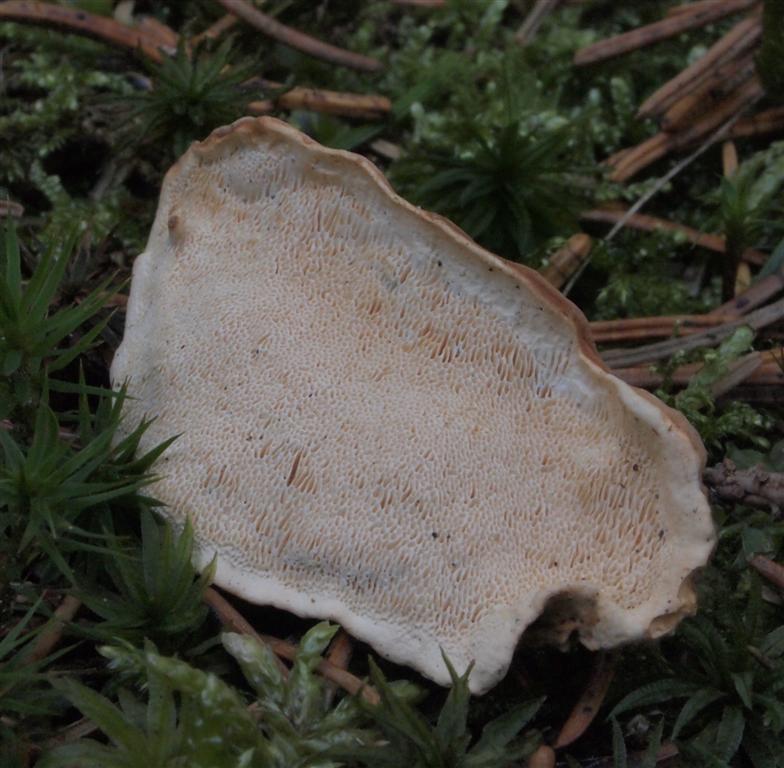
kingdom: Fungi
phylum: Basidiomycota
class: Agaricomycetes
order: Russulales
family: Bondarzewiaceae
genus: Heterobasidion
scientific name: Heterobasidion parviporum
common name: småporet rodfordærver
